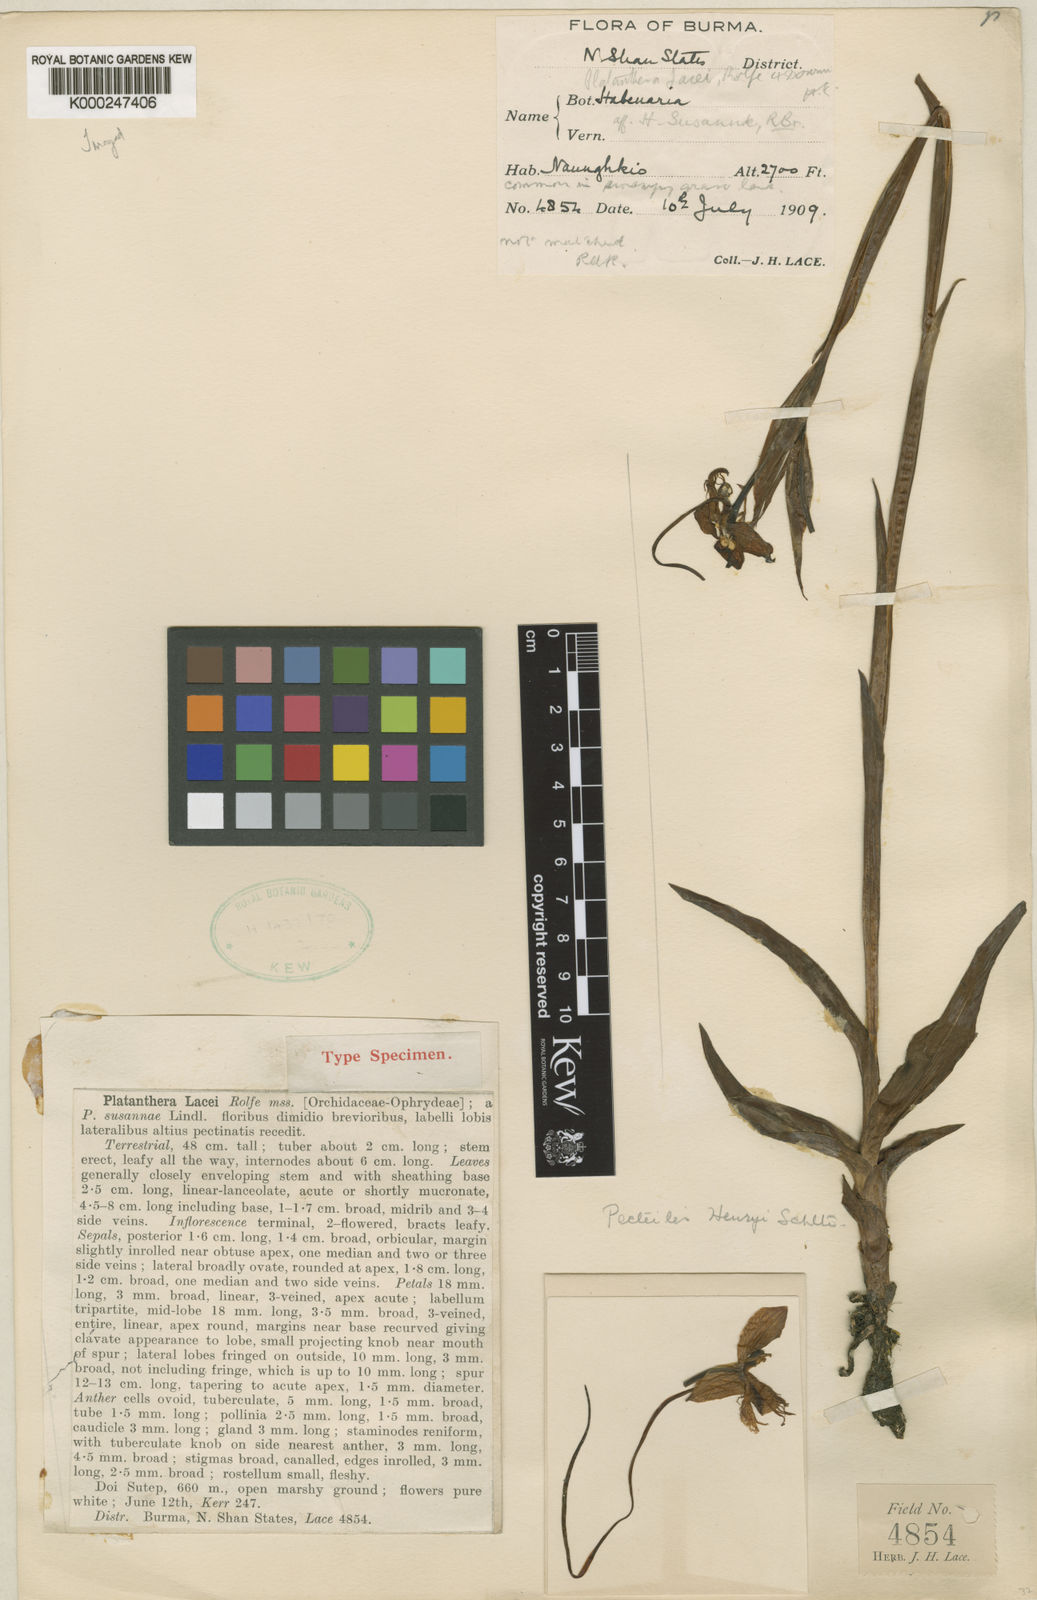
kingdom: Plantae
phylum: Tracheophyta
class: Liliopsida
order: Asparagales
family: Orchidaceae
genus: Pecteilis
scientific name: Pecteilis henryi
